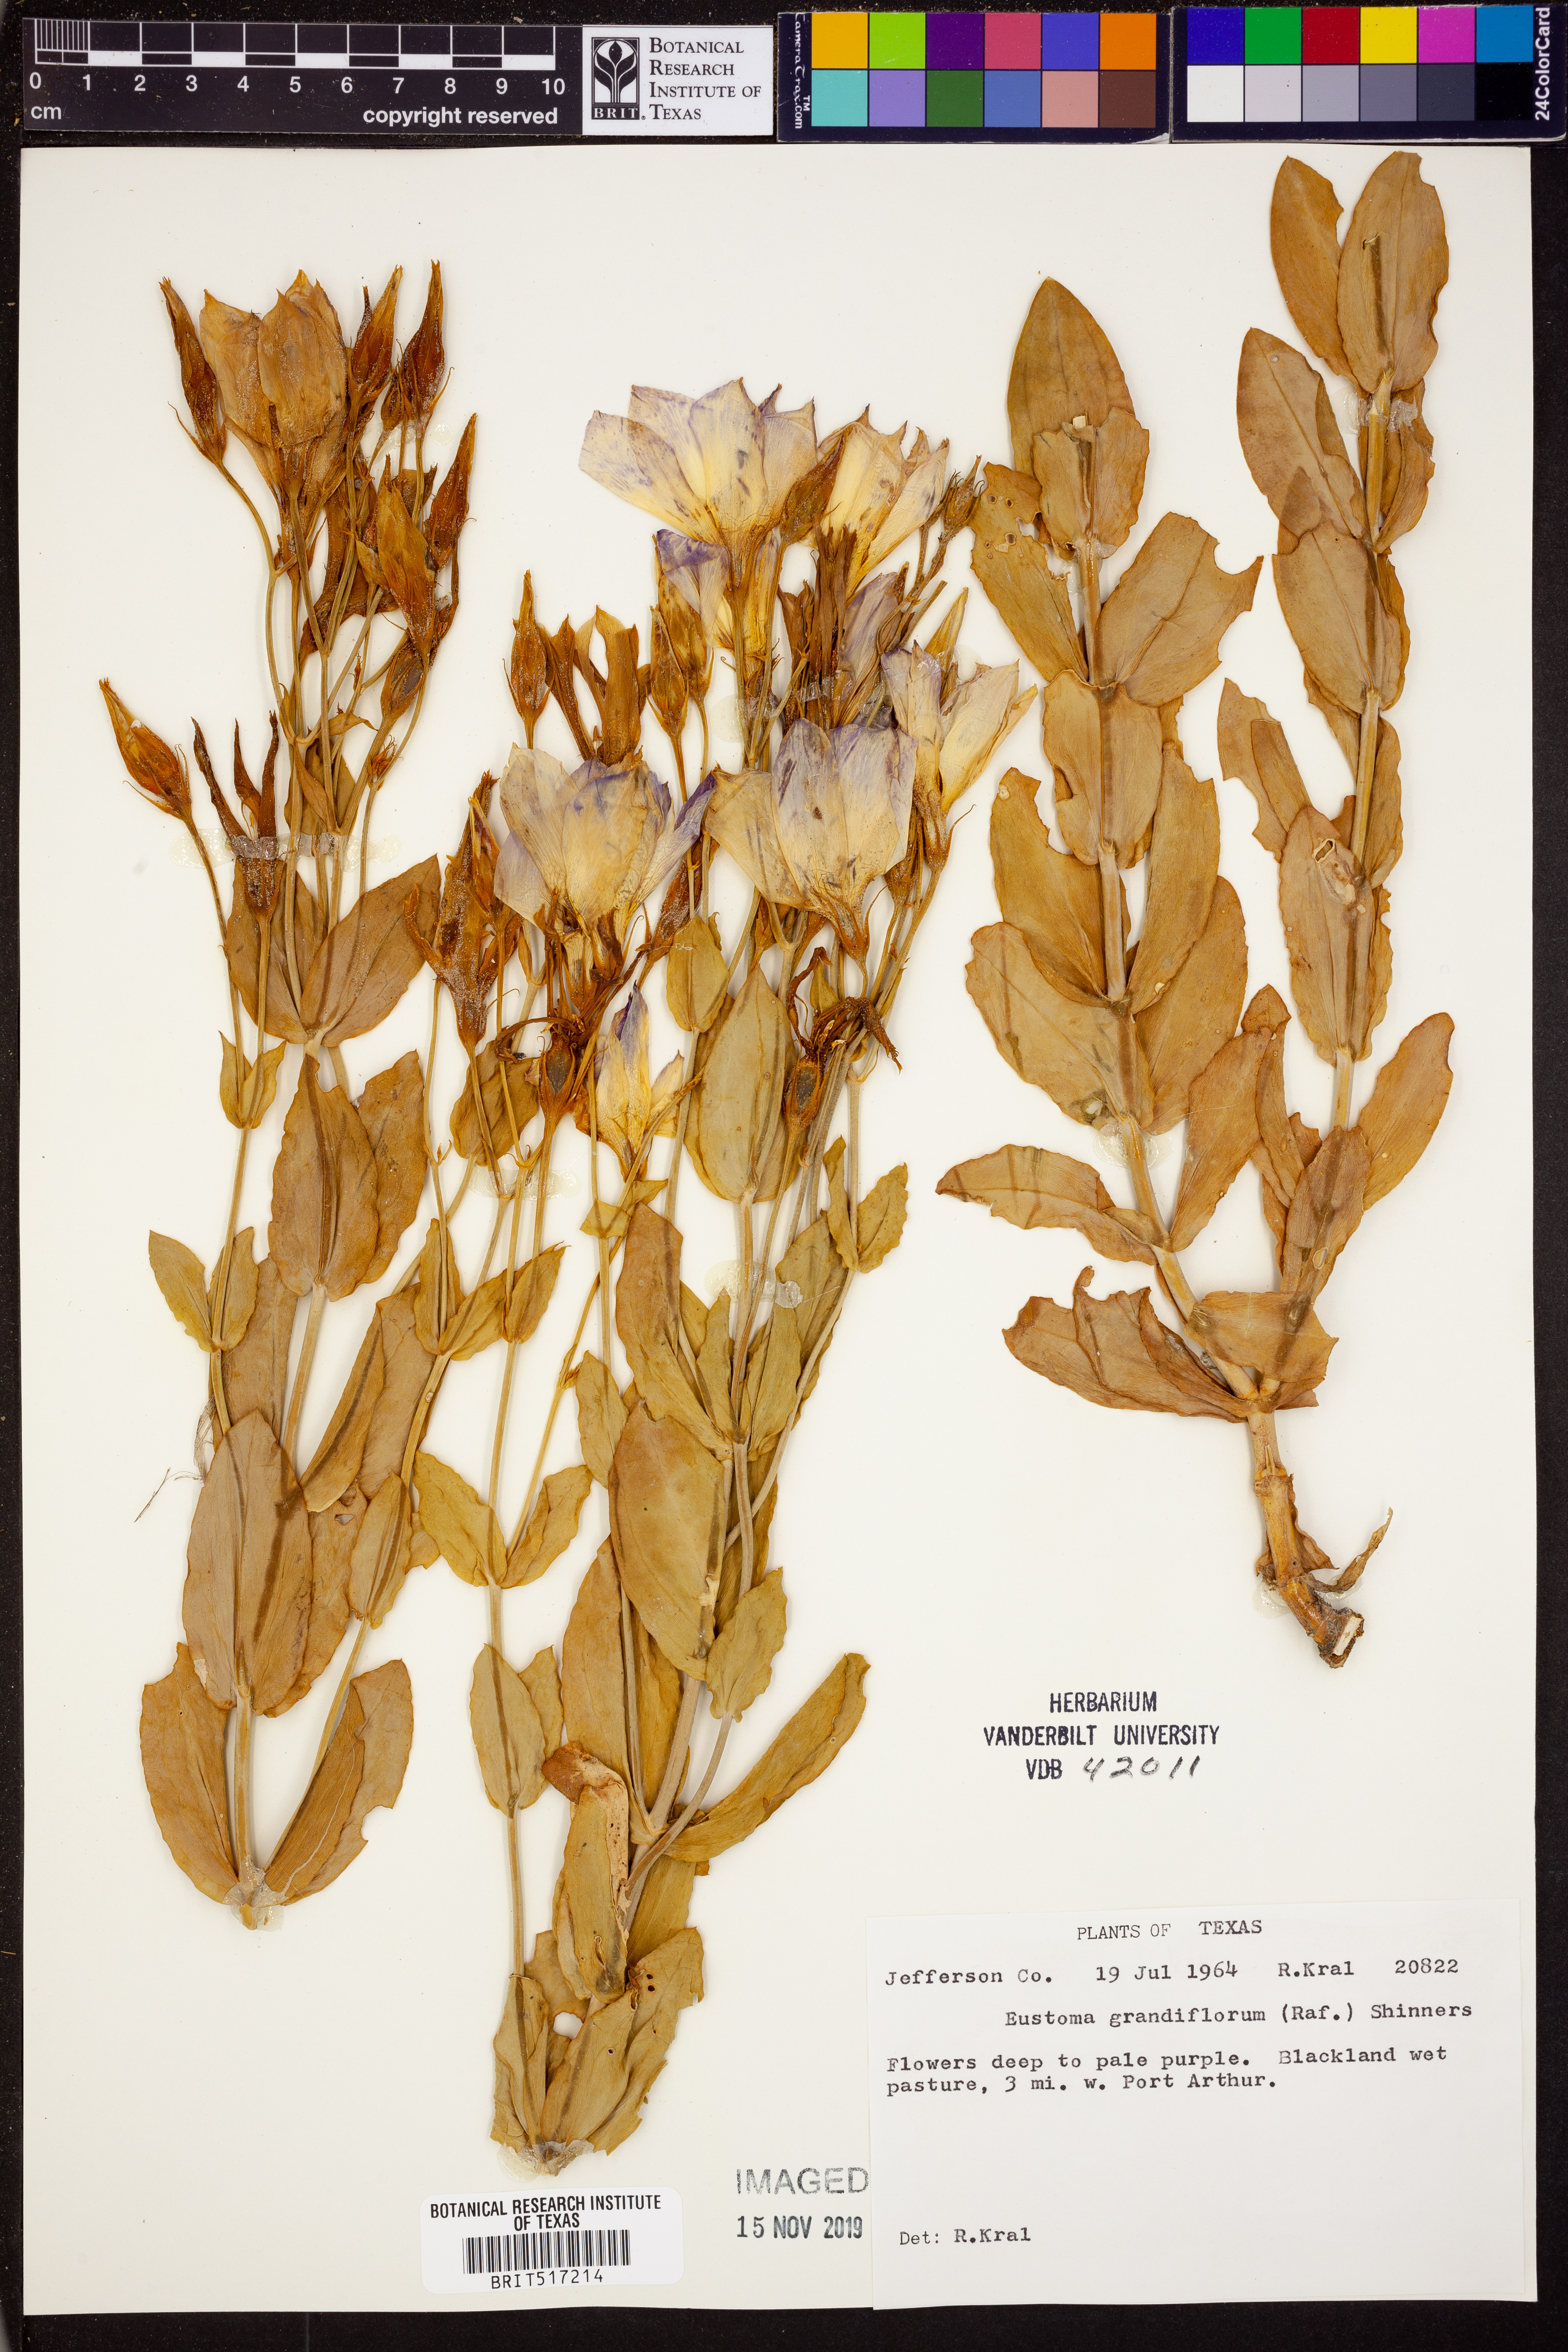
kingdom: Plantae
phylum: Tracheophyta
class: Magnoliopsida
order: Gentianales
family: Gentianaceae
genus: Eustoma
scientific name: Eustoma russellianum
